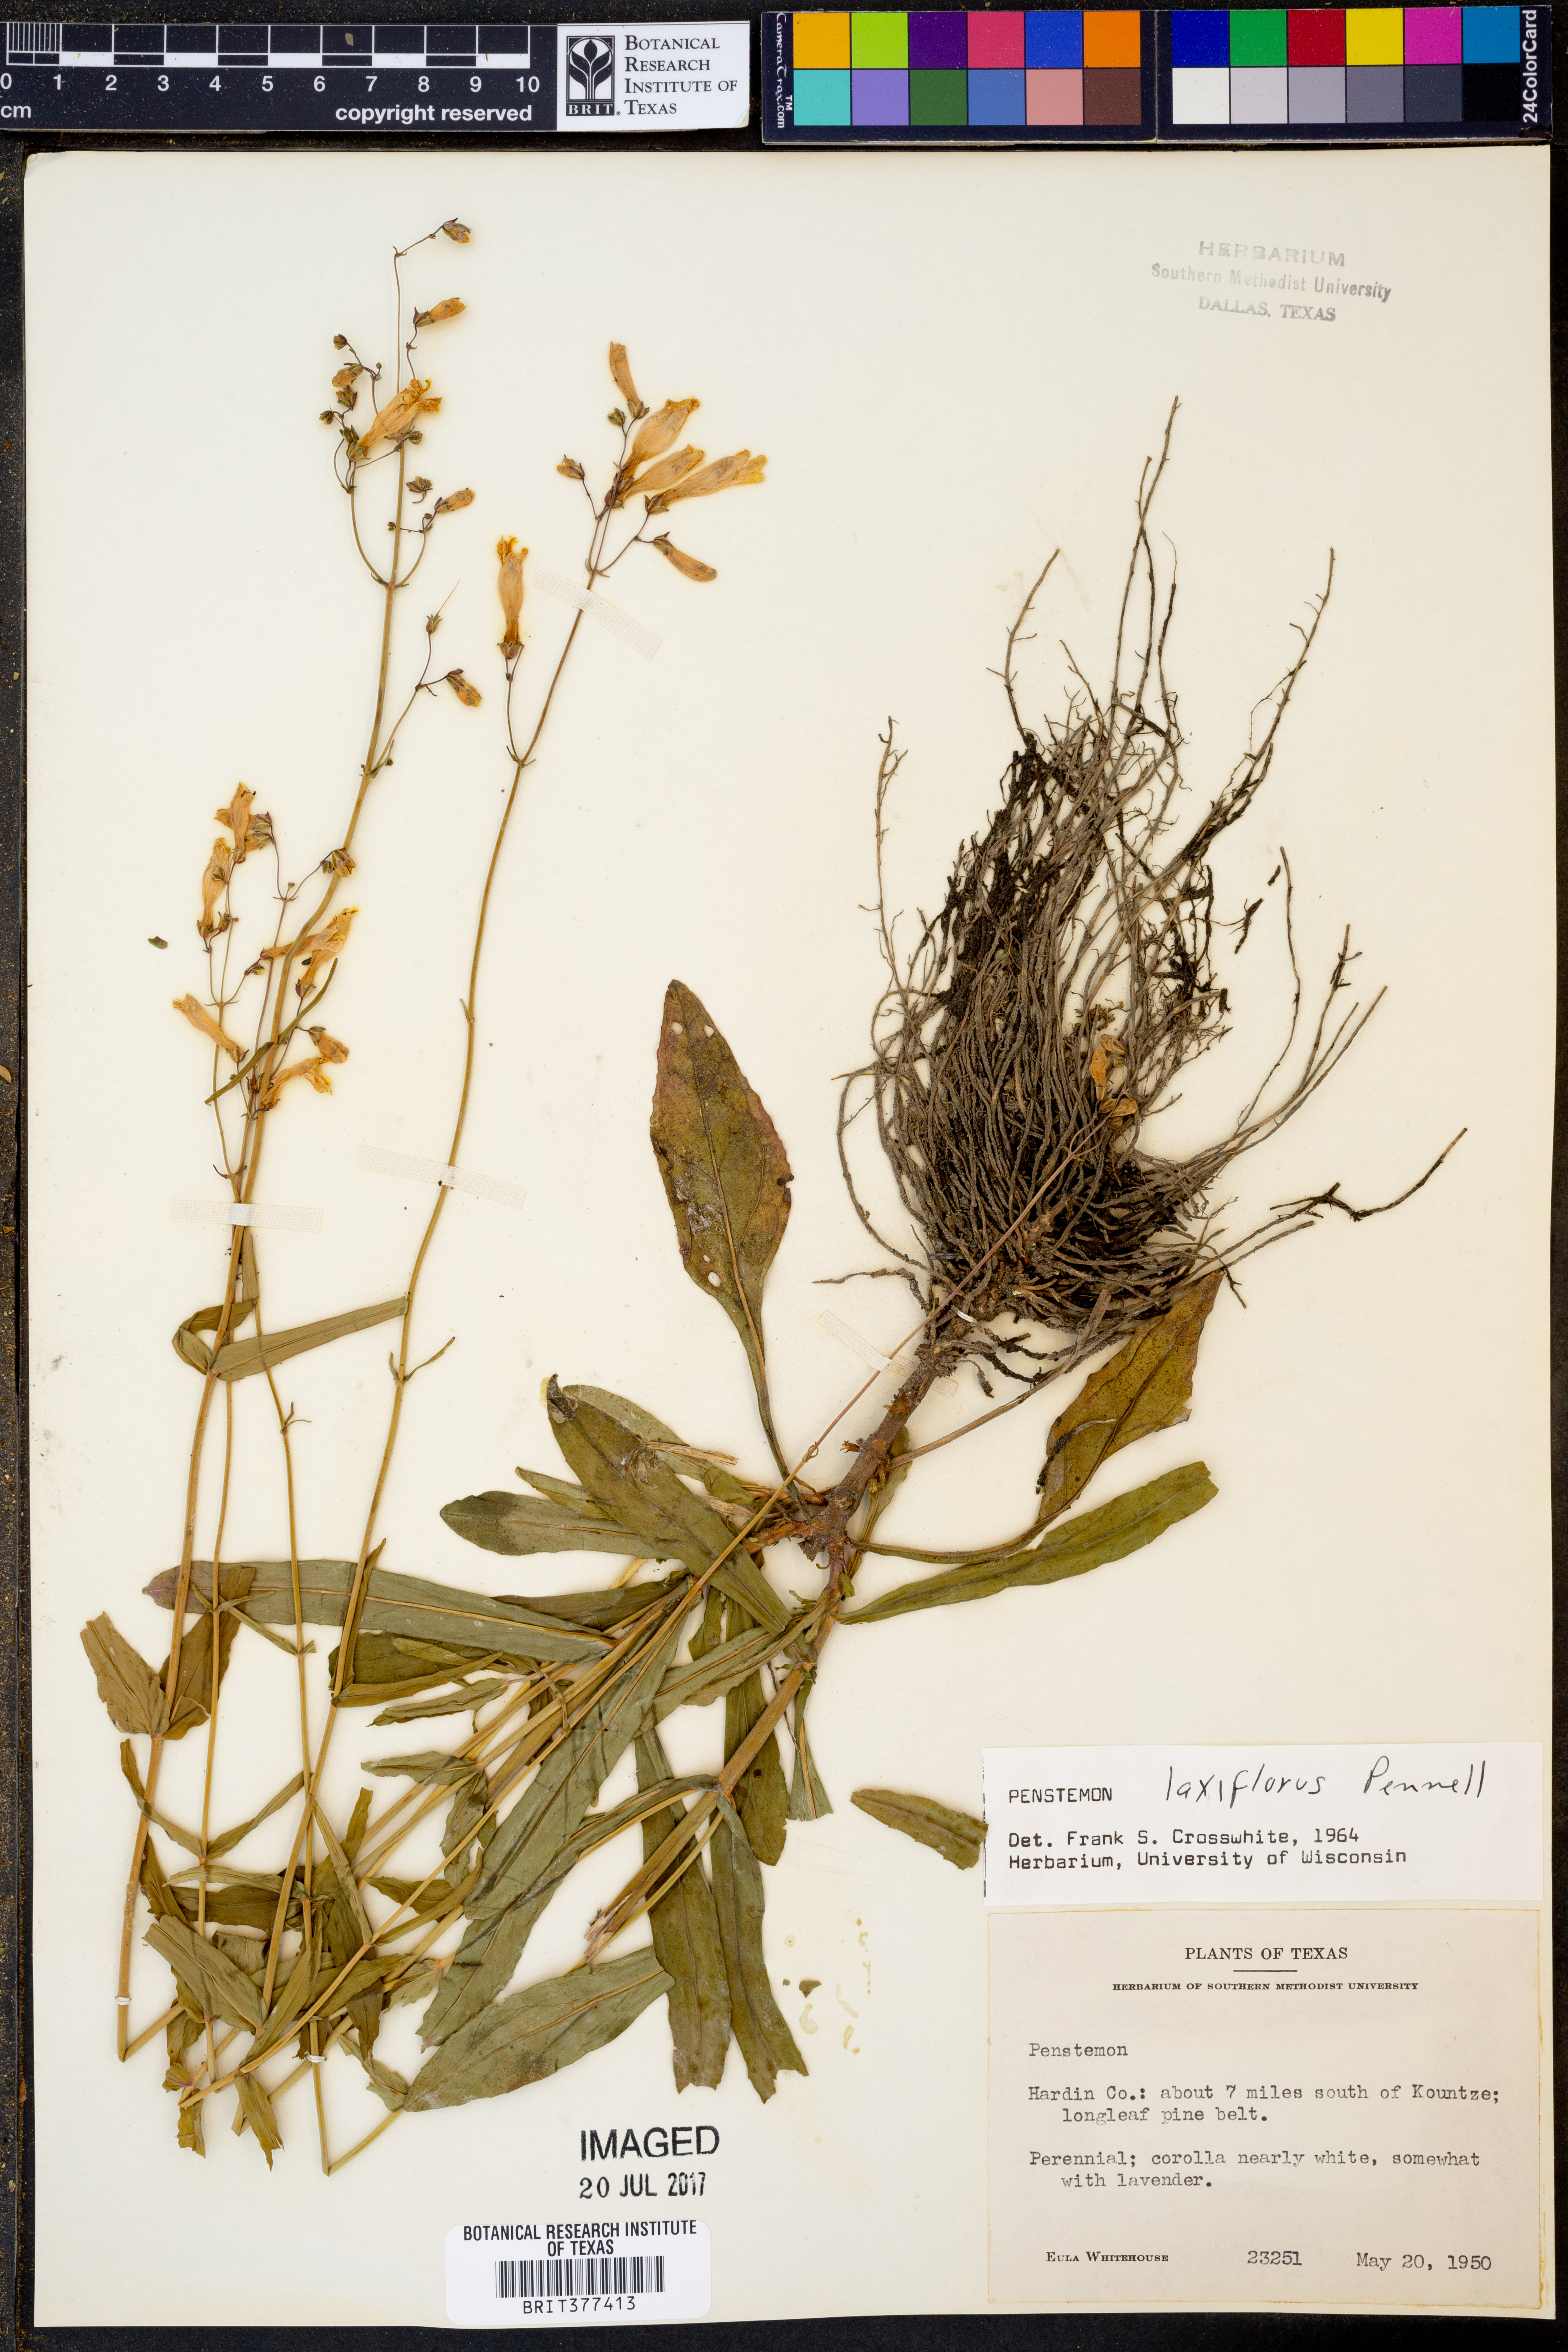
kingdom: Plantae
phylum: Tracheophyta
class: Magnoliopsida
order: Lamiales
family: Plantaginaceae
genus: Penstemon
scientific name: Penstemon laxiflorus
